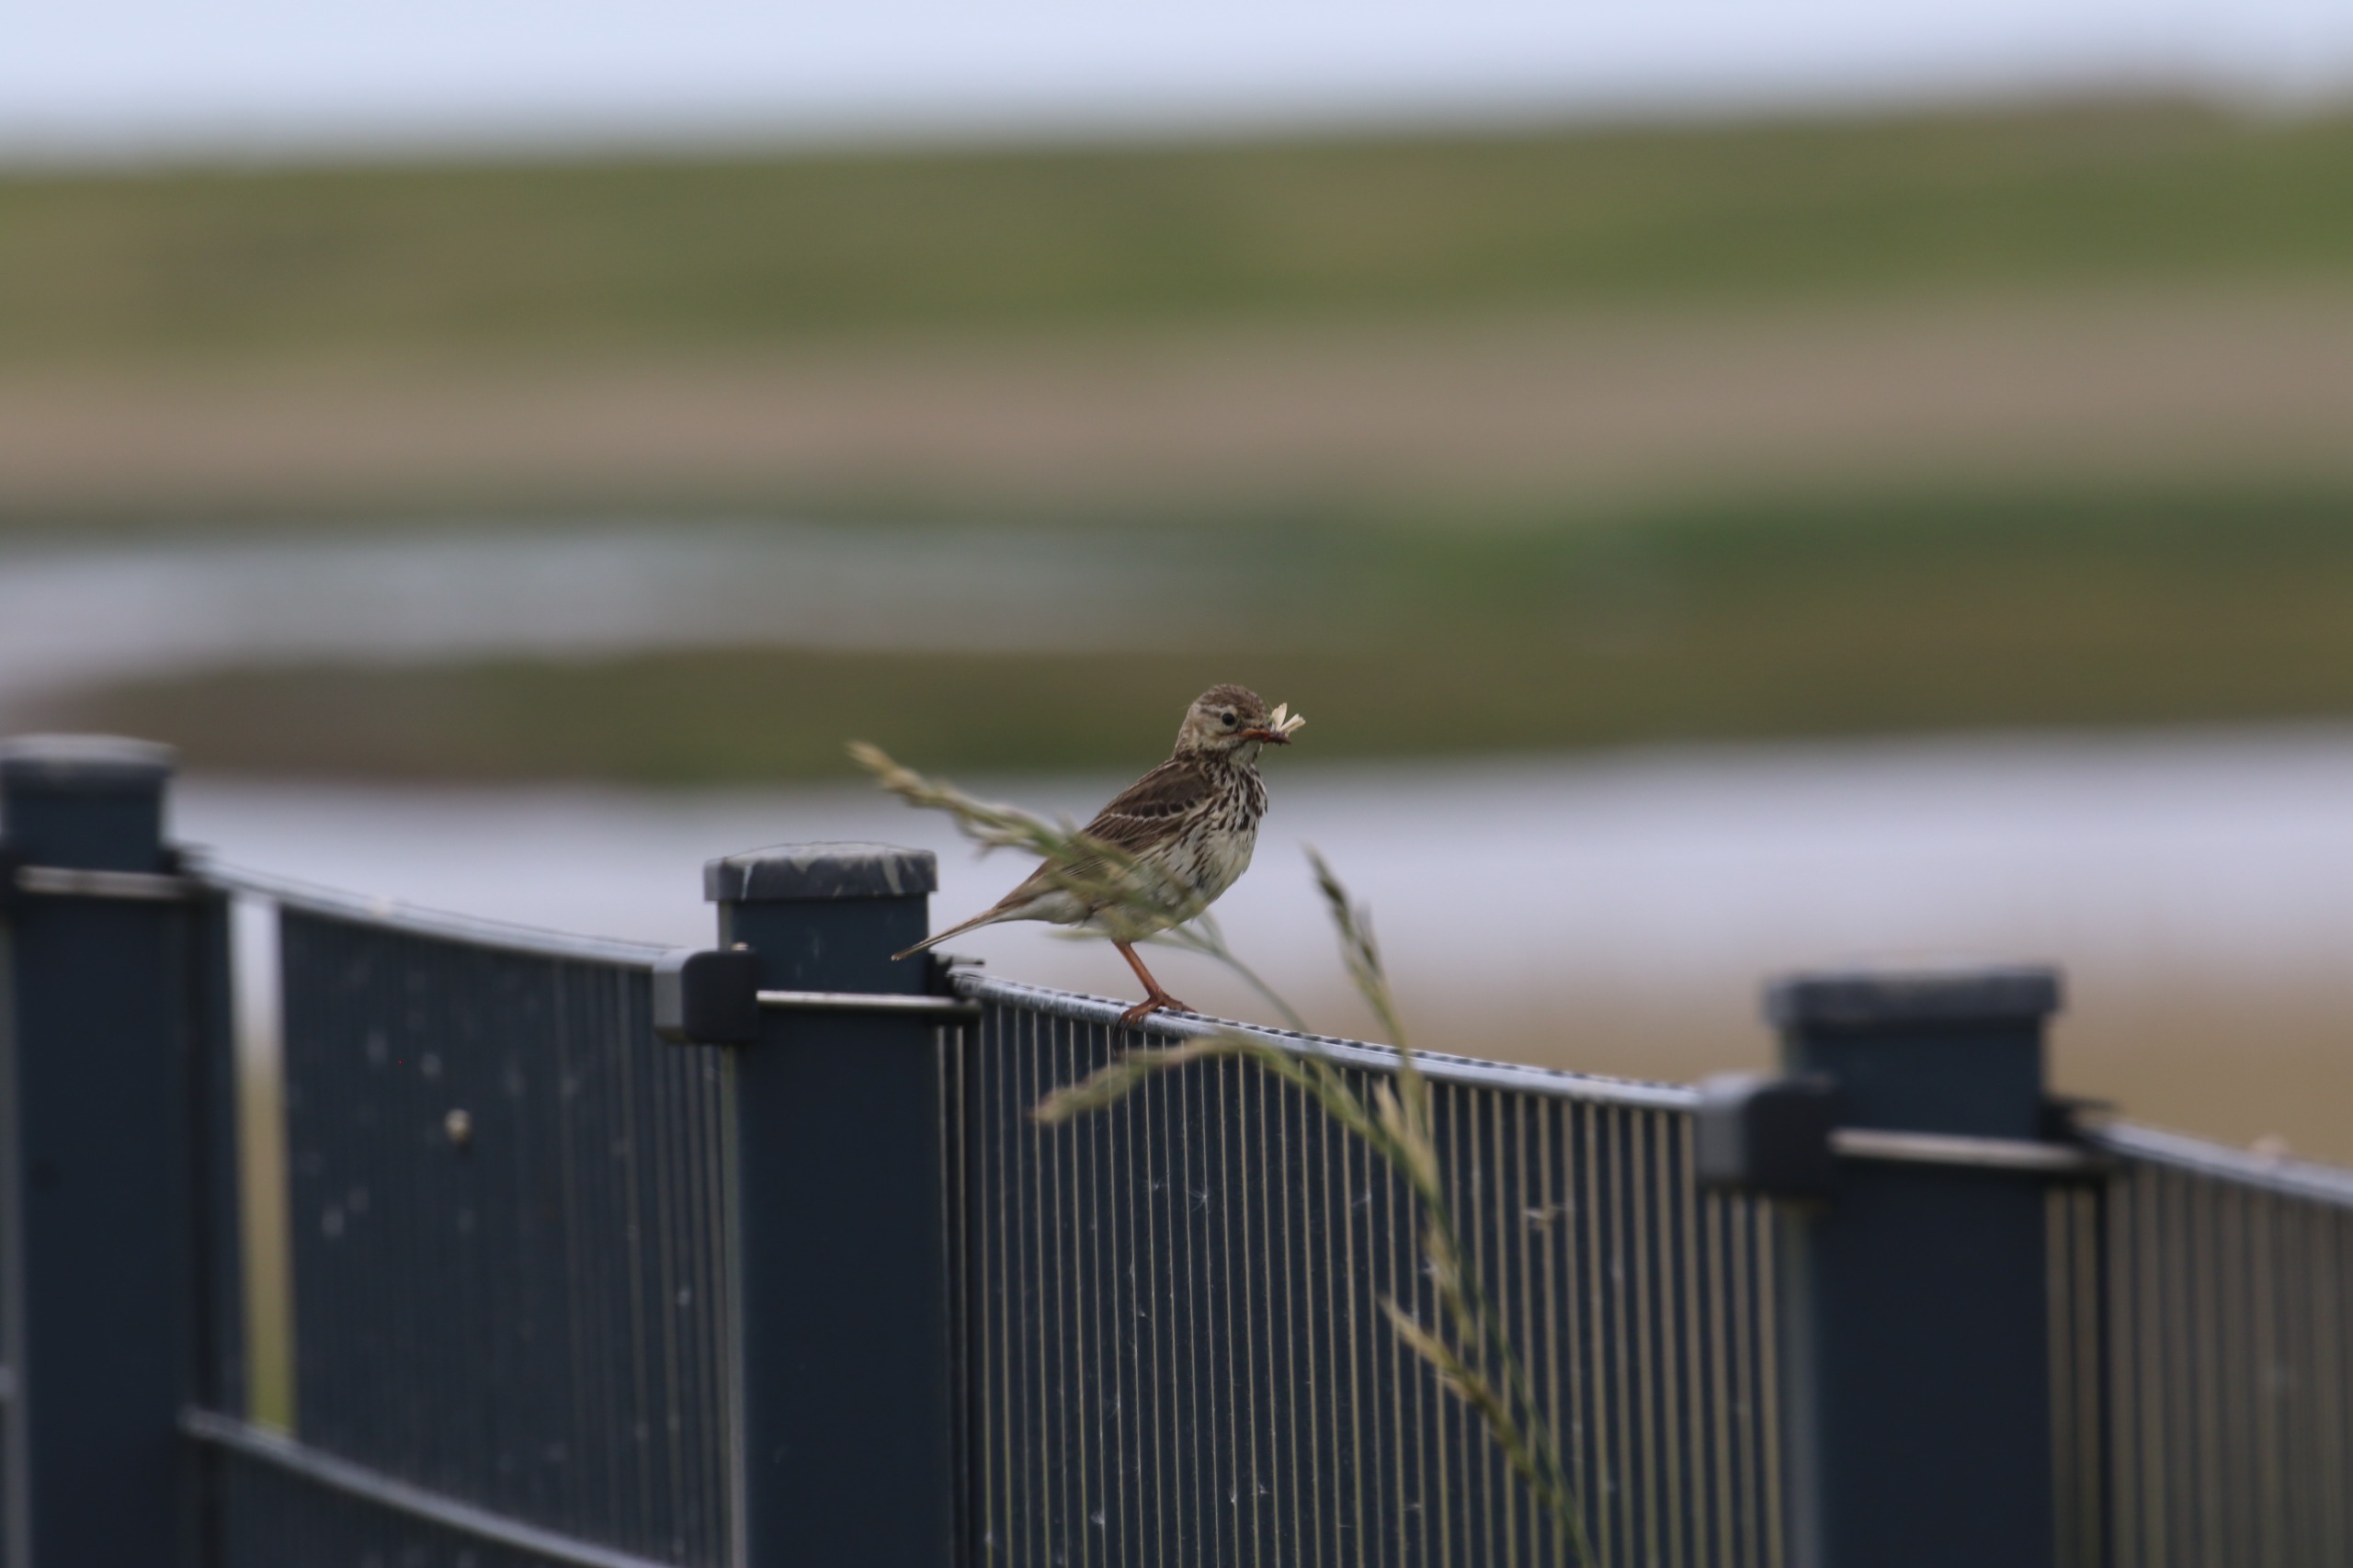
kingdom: Animalia
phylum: Chordata
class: Aves
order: Passeriformes
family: Motacillidae
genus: Anthus
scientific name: Anthus pratensis
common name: Engpiber
